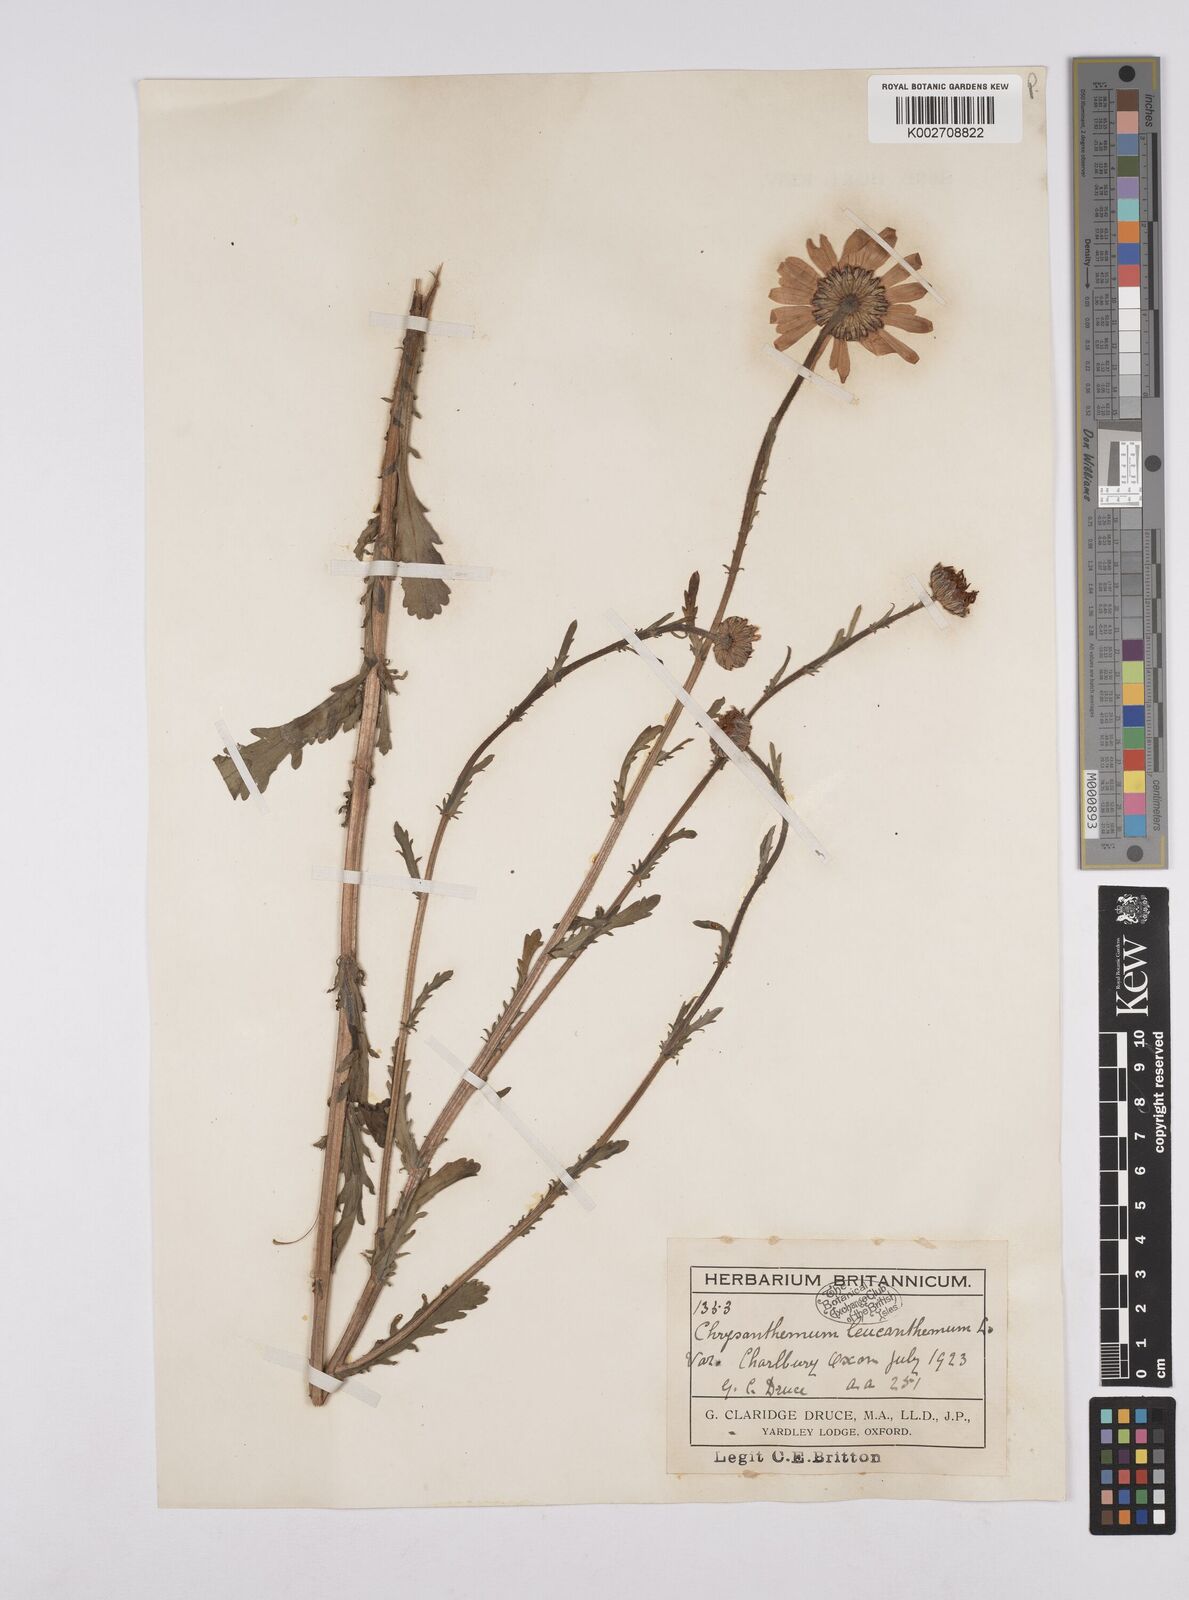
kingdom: Plantae
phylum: Tracheophyta
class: Magnoliopsida
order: Asterales
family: Asteraceae
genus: Leucanthemum
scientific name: Leucanthemum vulgare
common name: Oxeye daisy
